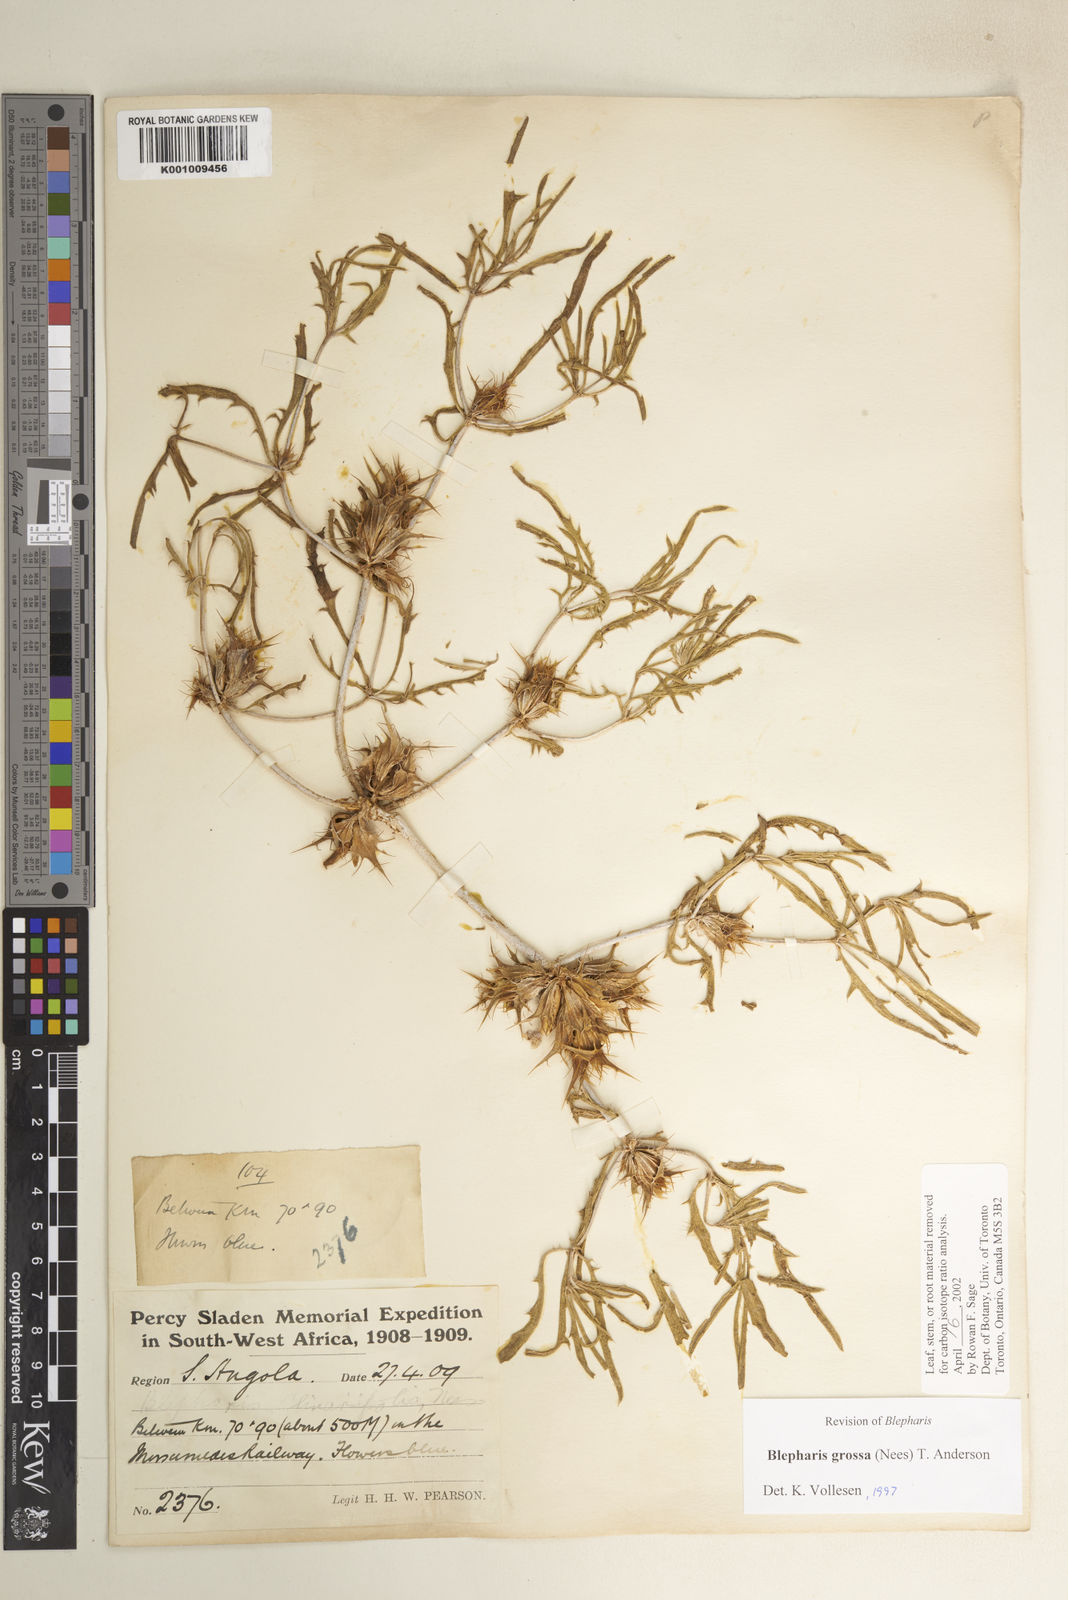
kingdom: Plantae
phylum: Tracheophyta
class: Magnoliopsida
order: Lamiales
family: Acanthaceae
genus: Blepharis
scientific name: Blepharis grossa
